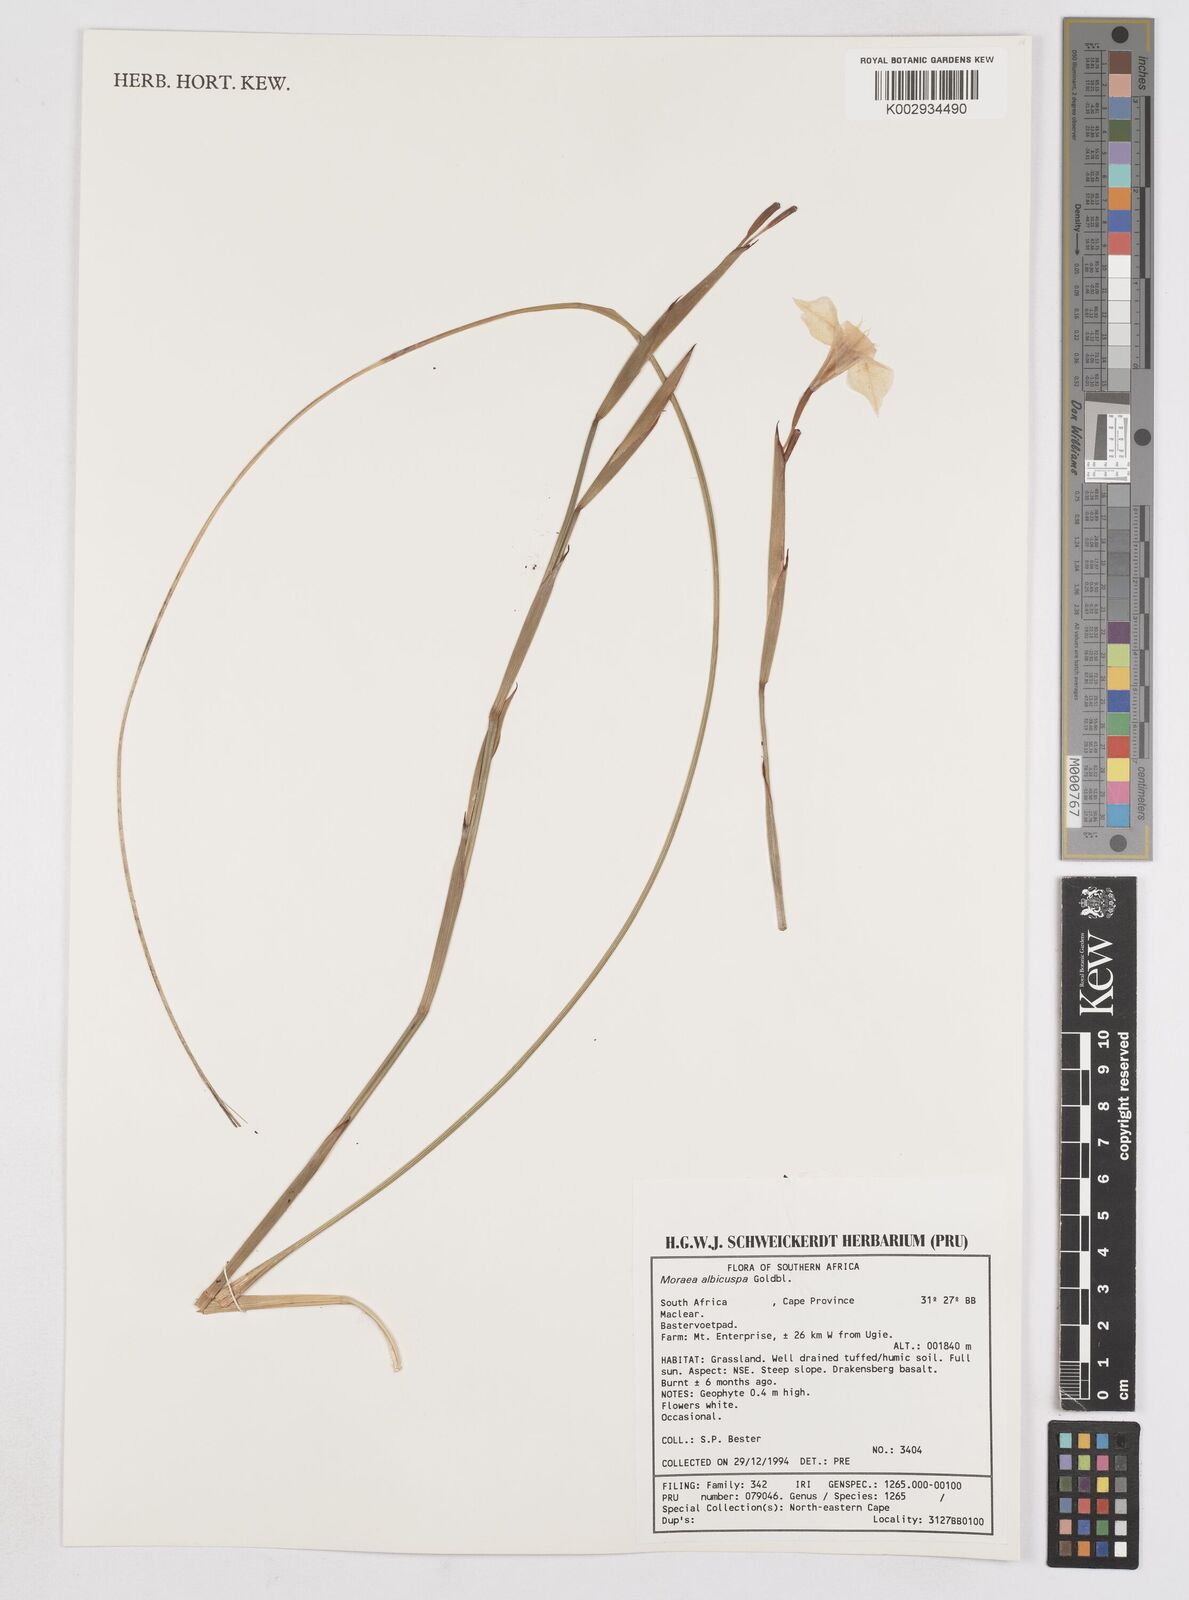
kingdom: Plantae
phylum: Tracheophyta
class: Liliopsida
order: Asparagales
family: Iridaceae
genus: Moraea
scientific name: Moraea albicuspa
